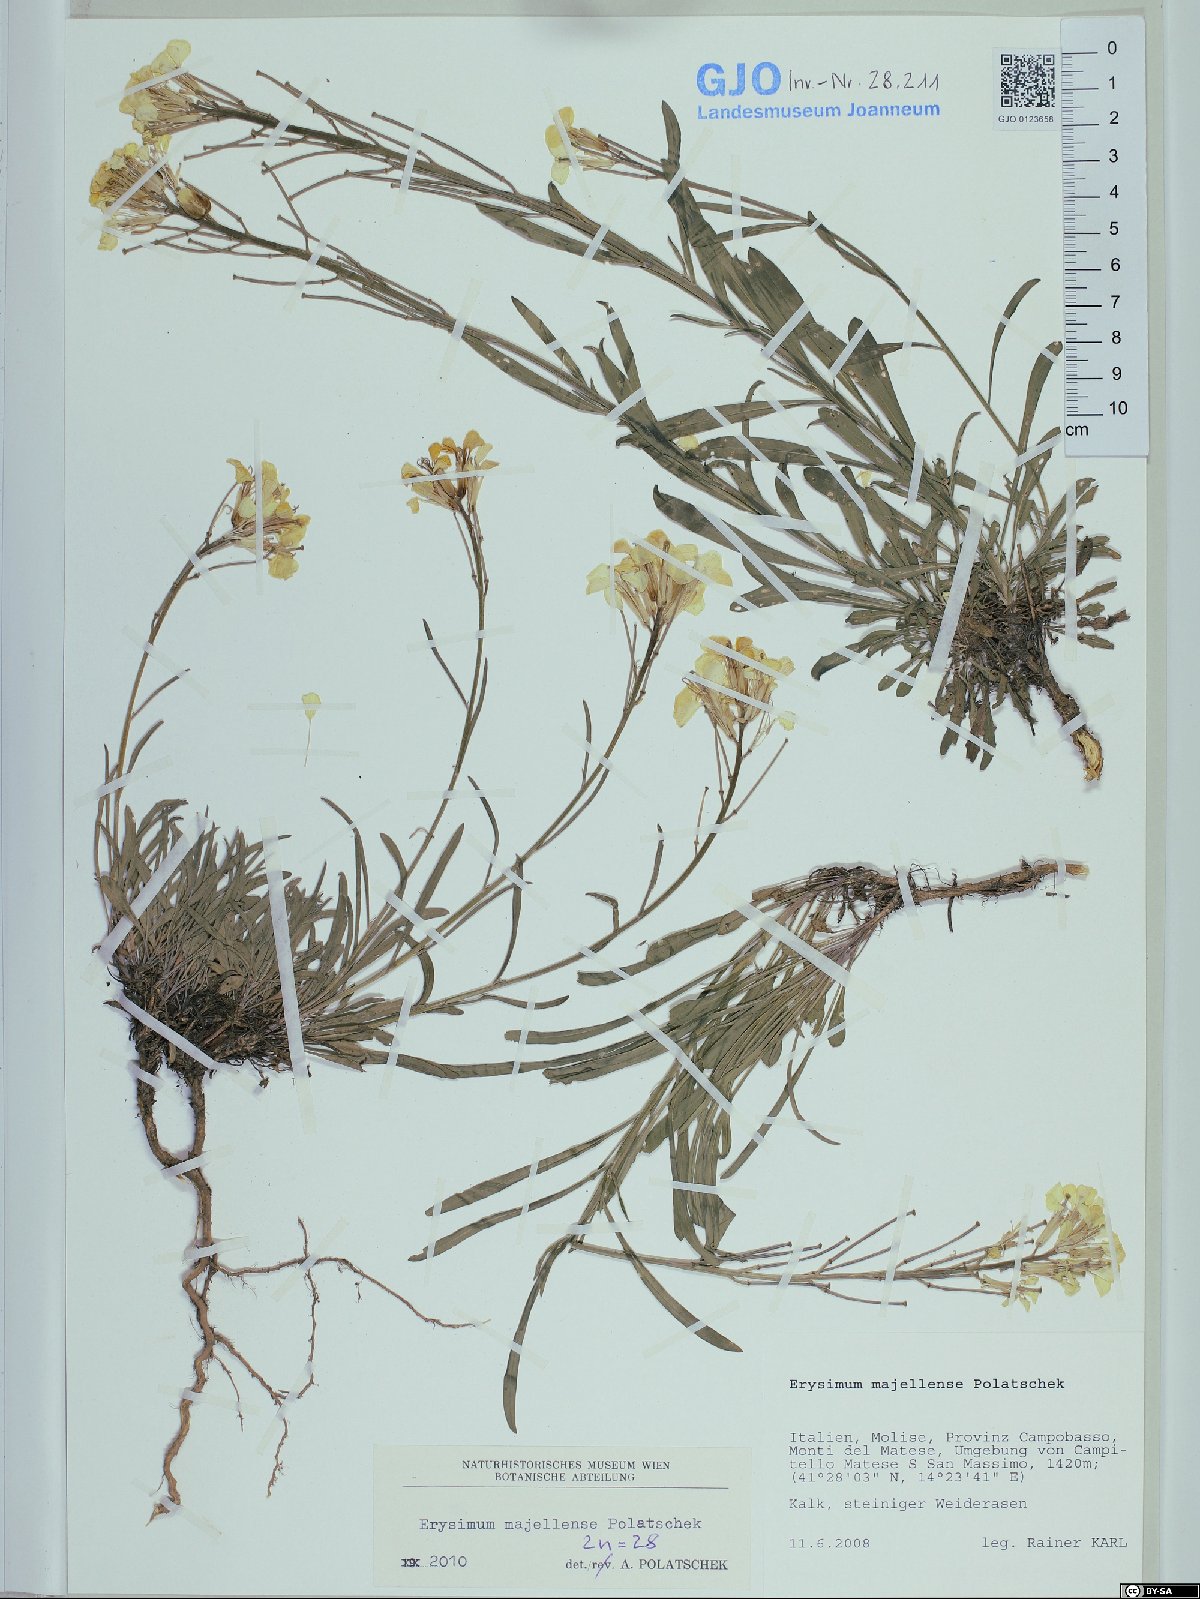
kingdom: Plantae
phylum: Tracheophyta
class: Magnoliopsida
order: Brassicales
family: Brassicaceae
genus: Erysimum
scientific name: Erysimum majellense
